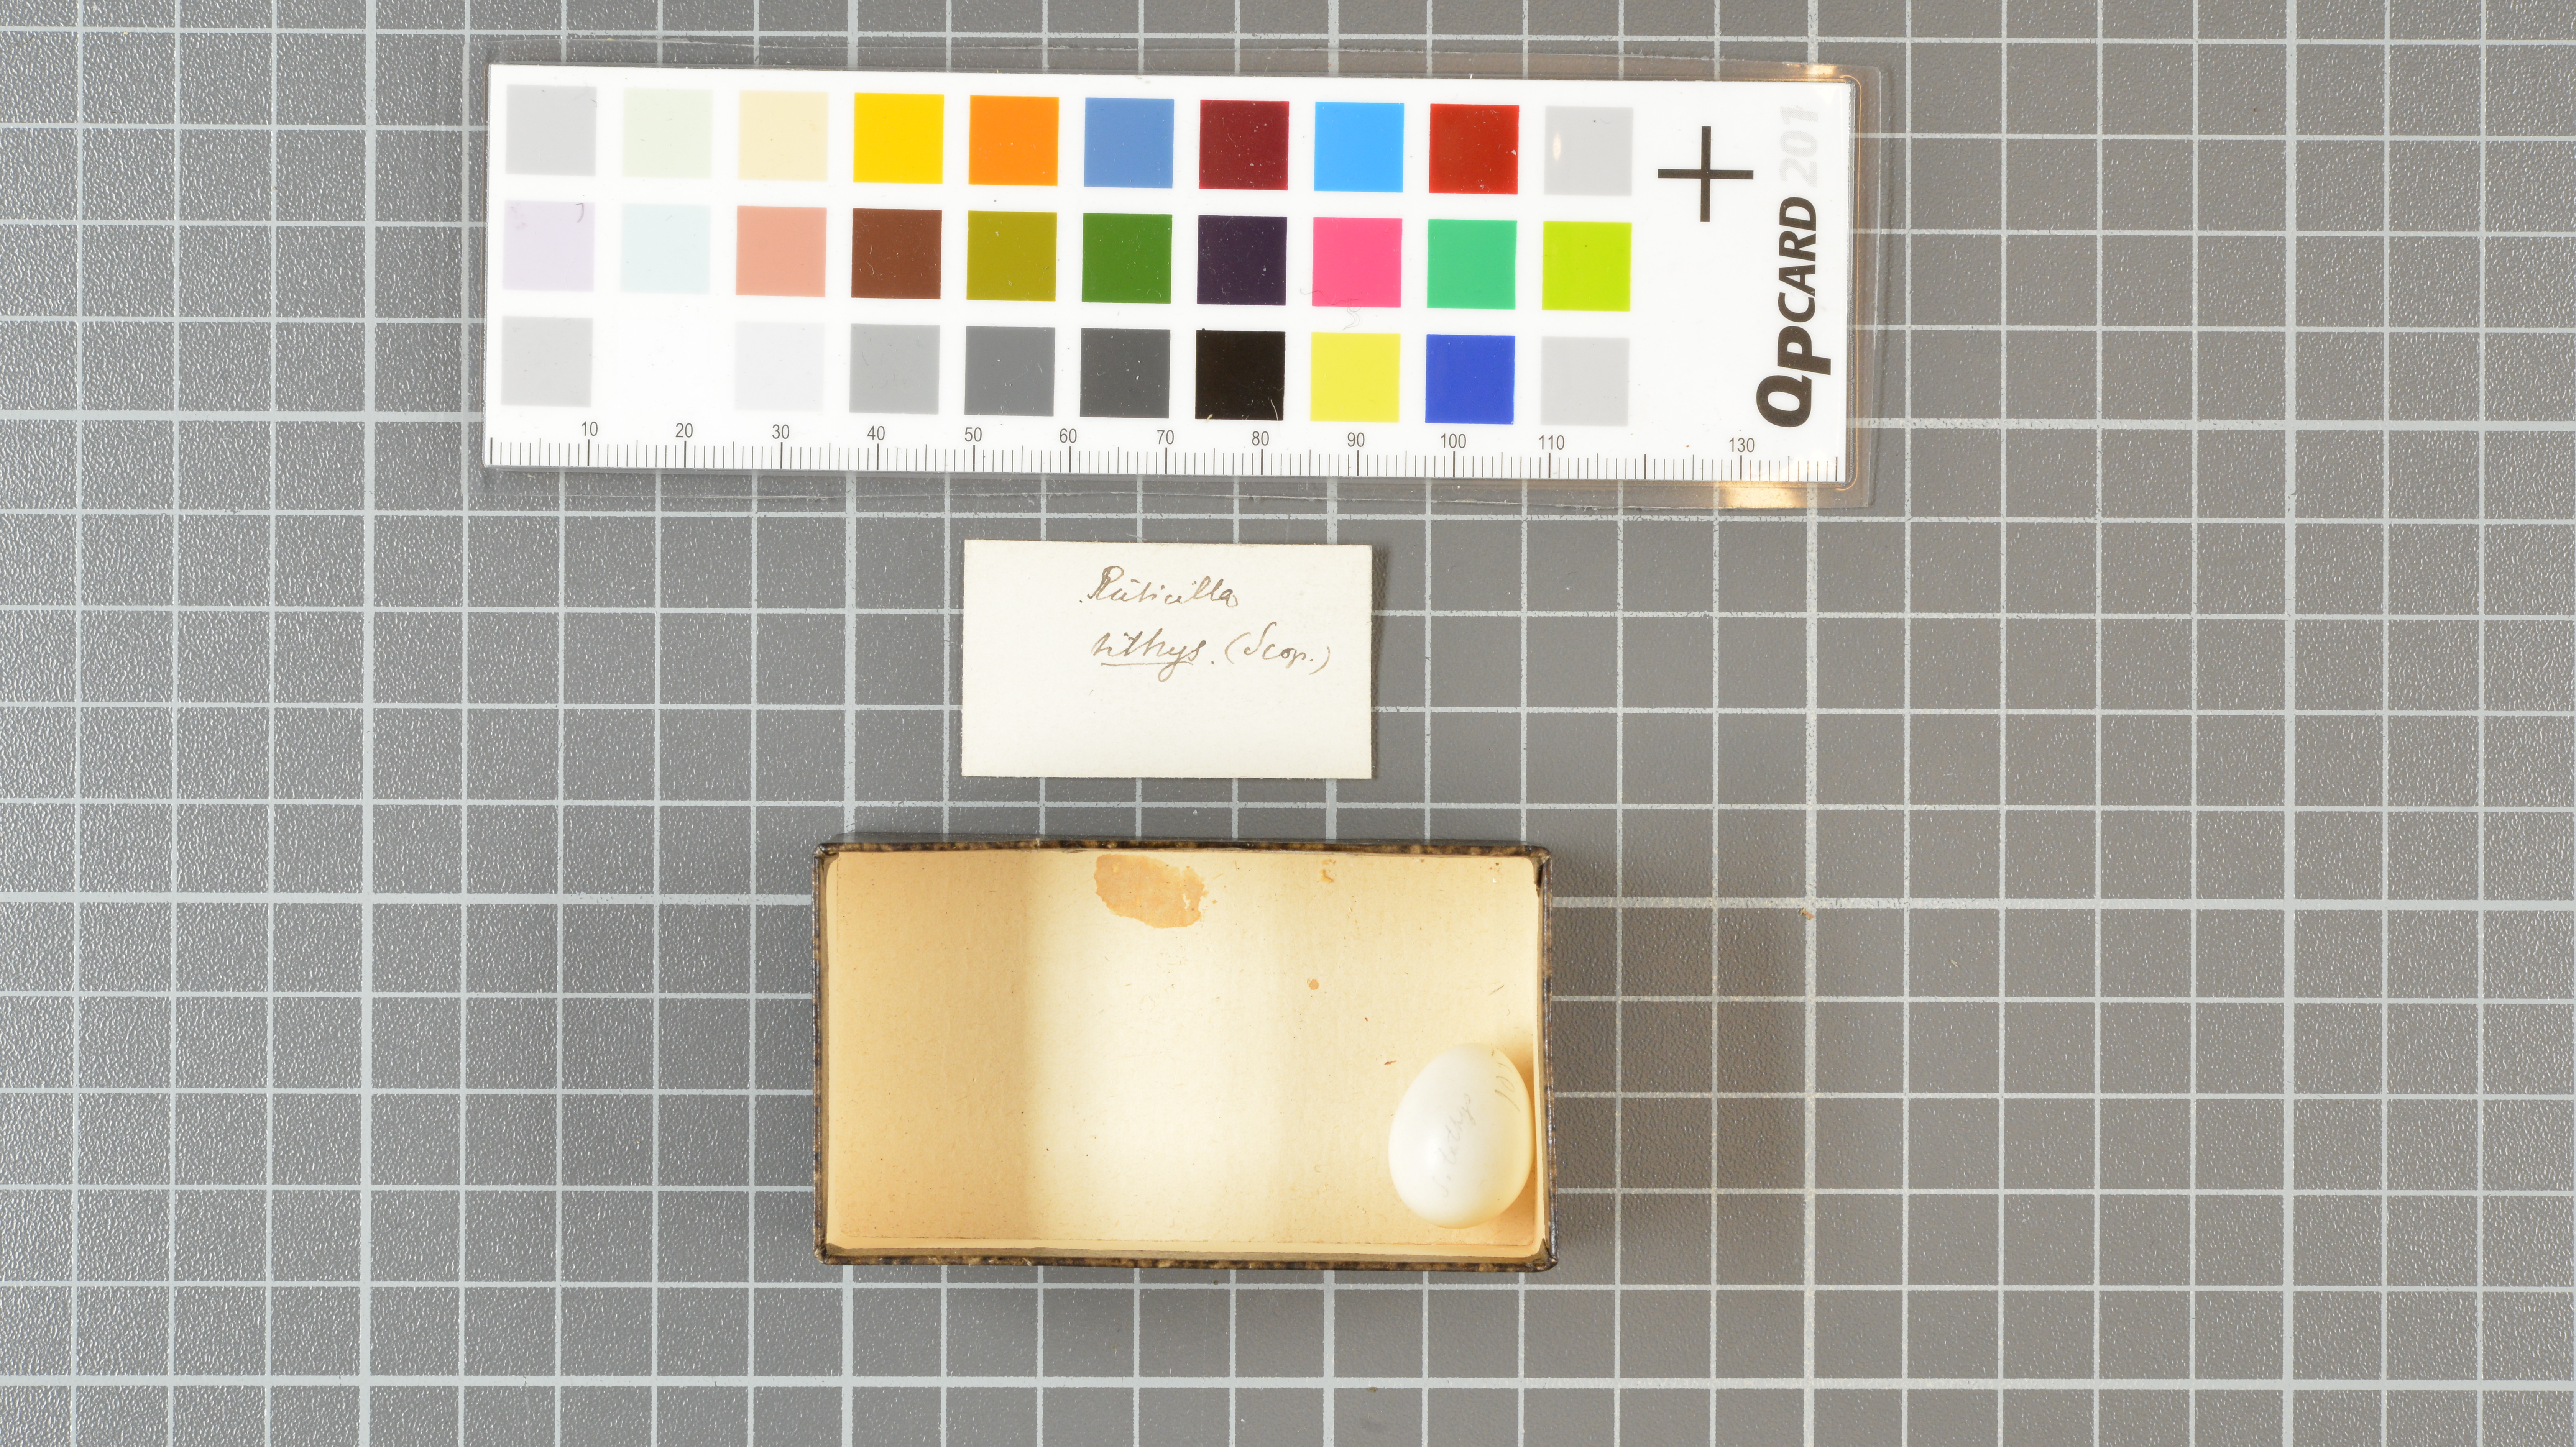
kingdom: Animalia
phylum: Chordata
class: Aves
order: Passeriformes
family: Muscicapidae
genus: Phoenicurus
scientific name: Phoenicurus ochruros
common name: Black redstart
